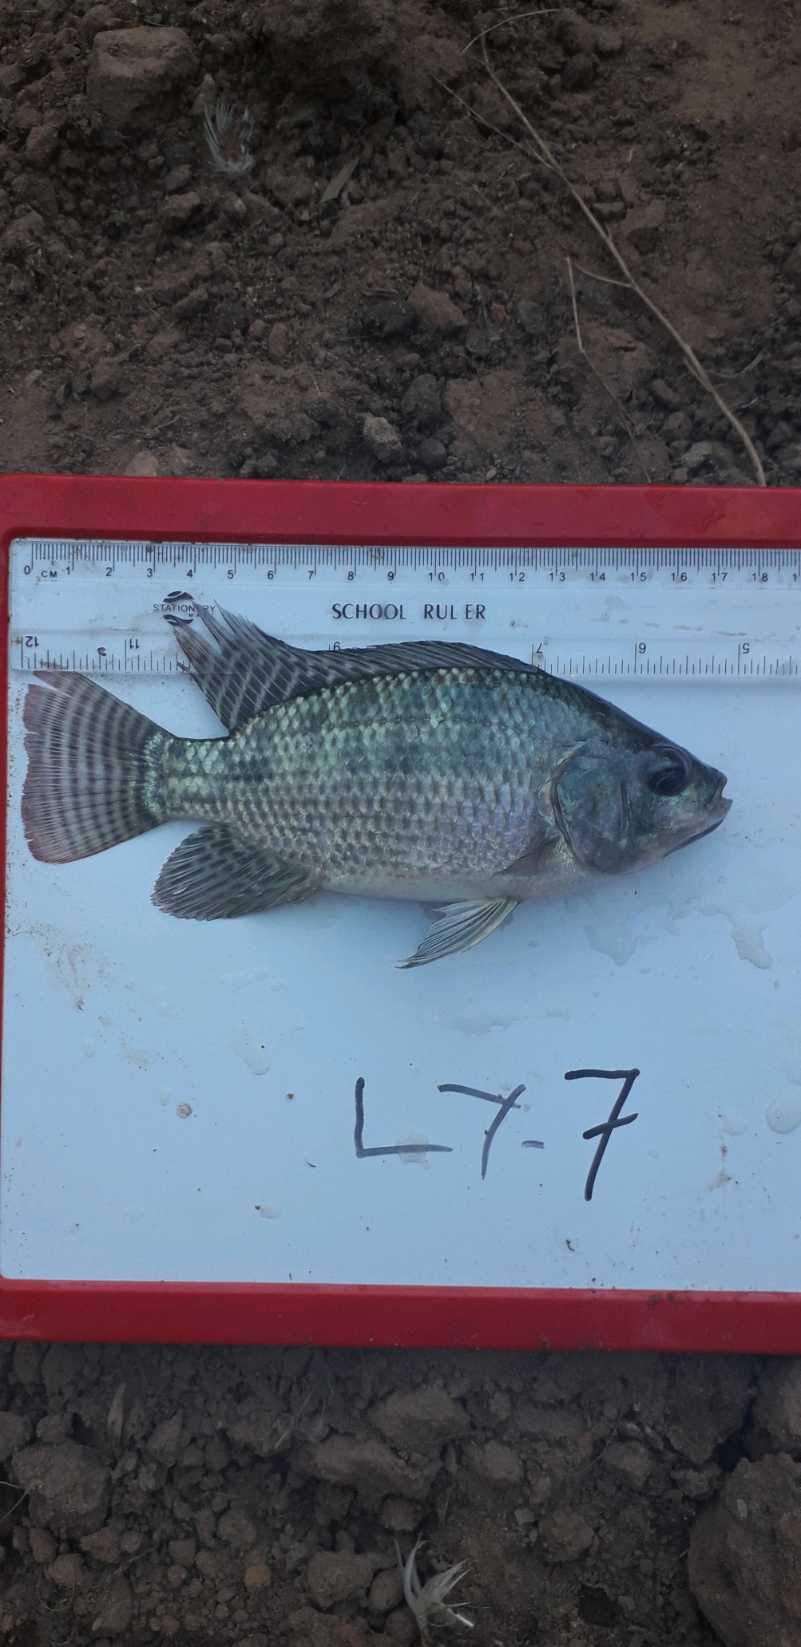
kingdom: Animalia
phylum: Chordata
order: Perciformes
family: Cichlidae
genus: Oreochromis
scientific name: Oreochromis niloticus
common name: Nile tilapia
